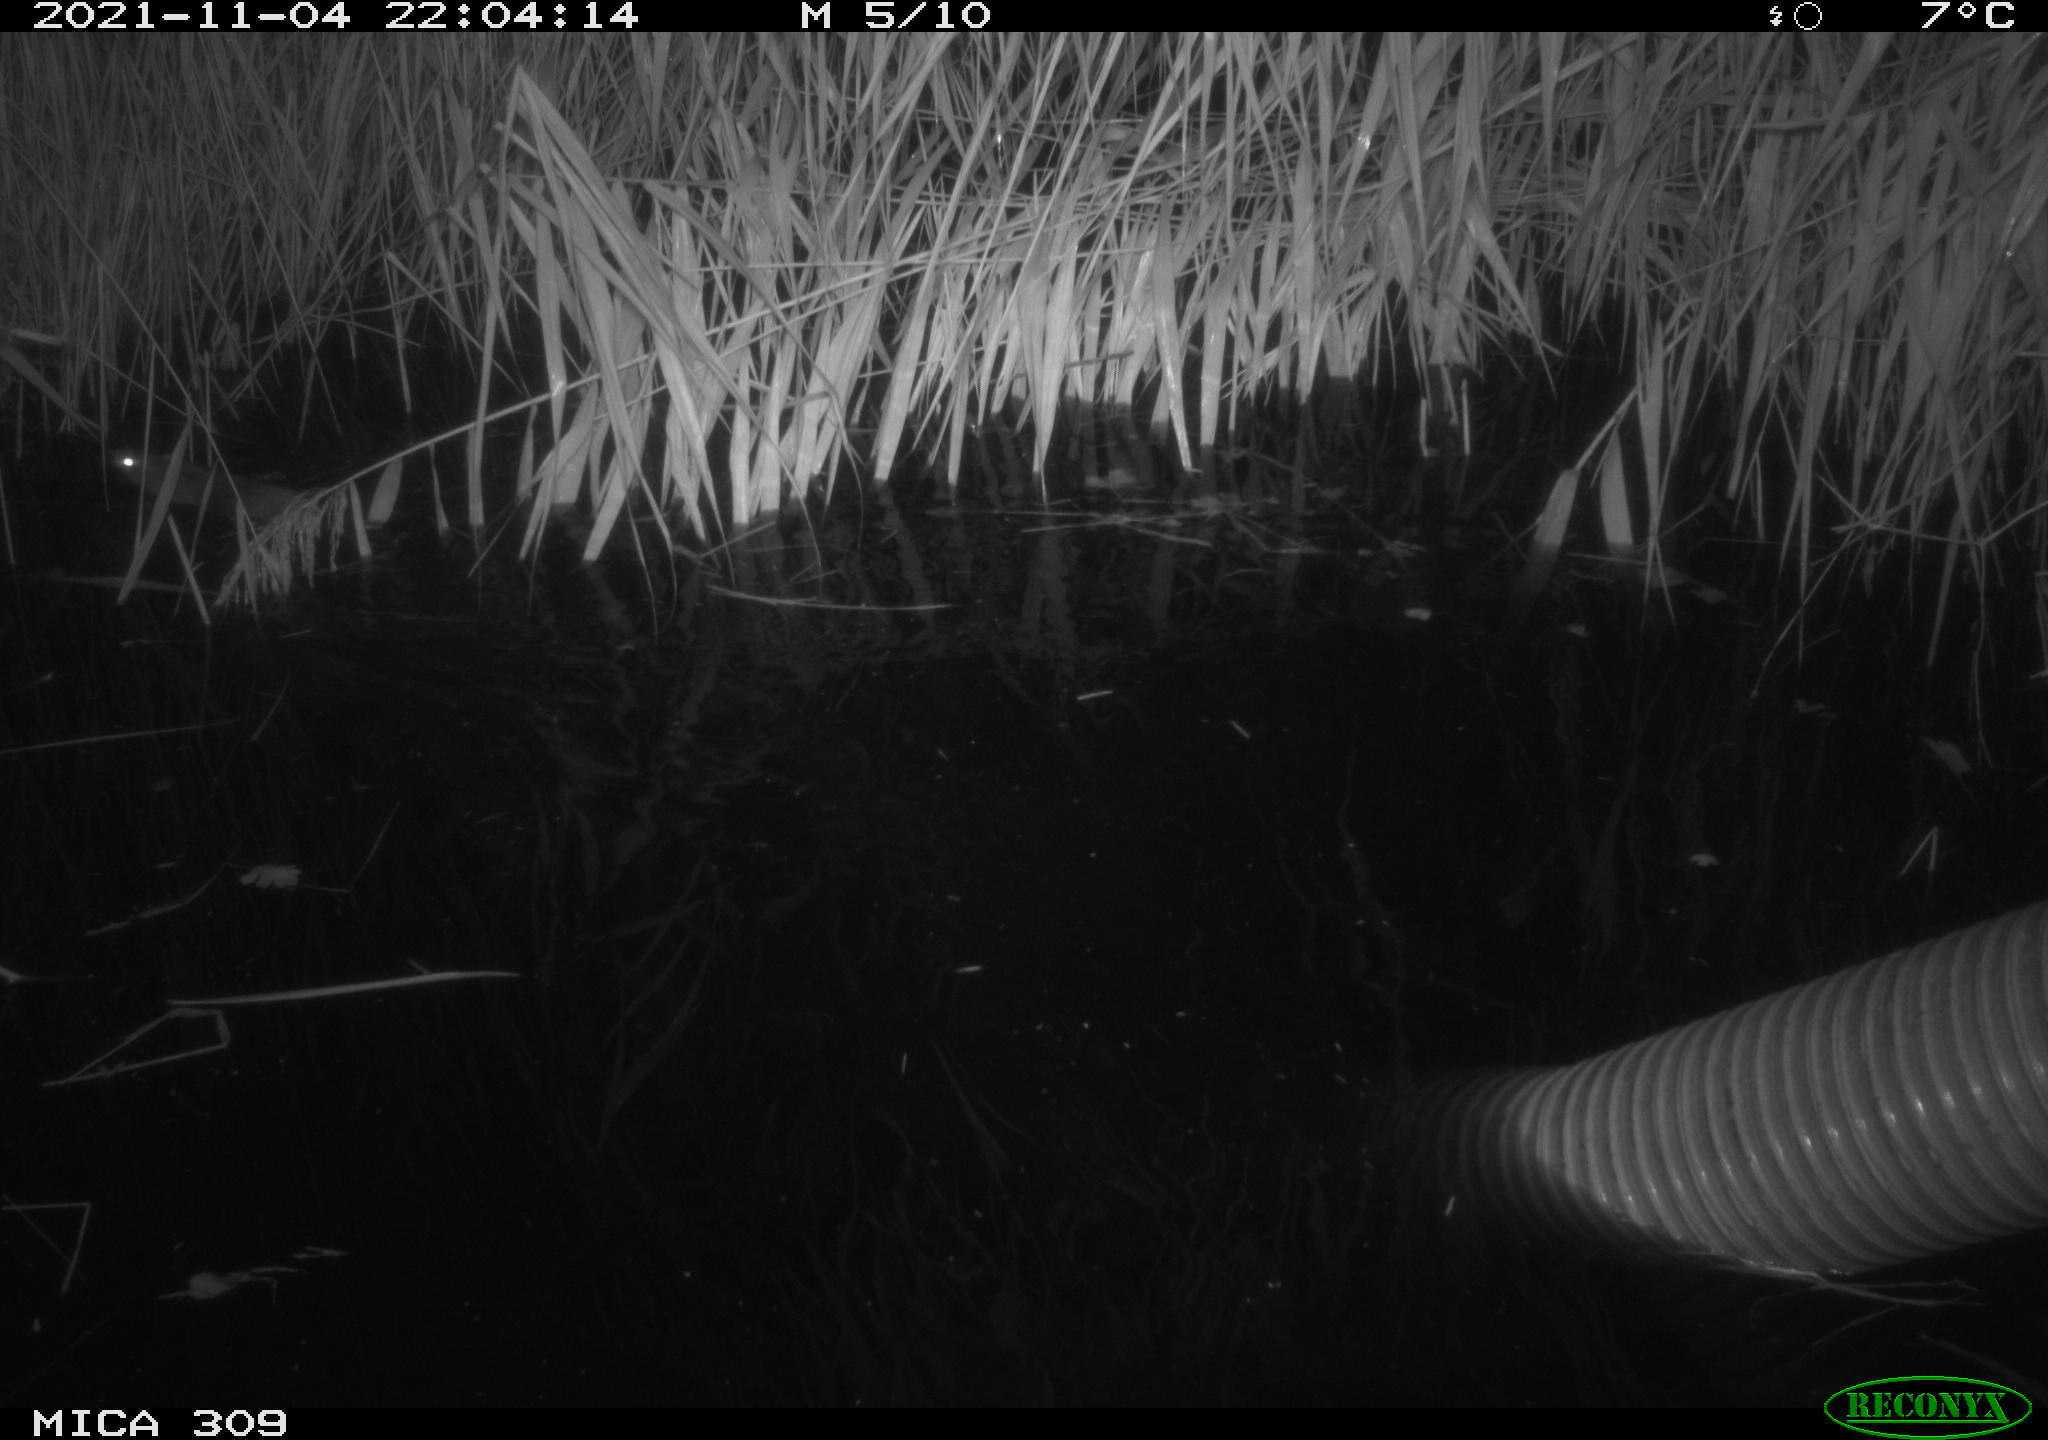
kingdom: Animalia
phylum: Chordata
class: Mammalia
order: Rodentia
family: Muridae
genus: Rattus
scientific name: Rattus norvegicus
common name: Brown rat
